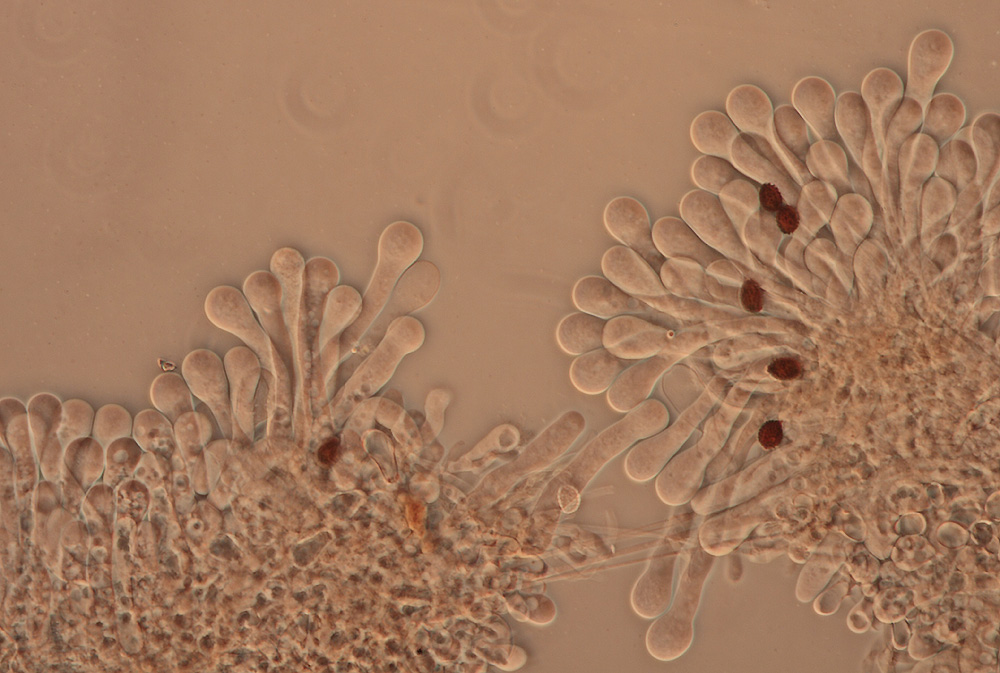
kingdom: Fungi
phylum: Basidiomycota
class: Agaricomycetes
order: Agaricales
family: Psathyrellaceae
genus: Lacrymaria
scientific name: Lacrymaria lacrymabunda
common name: grædende mørkhat
